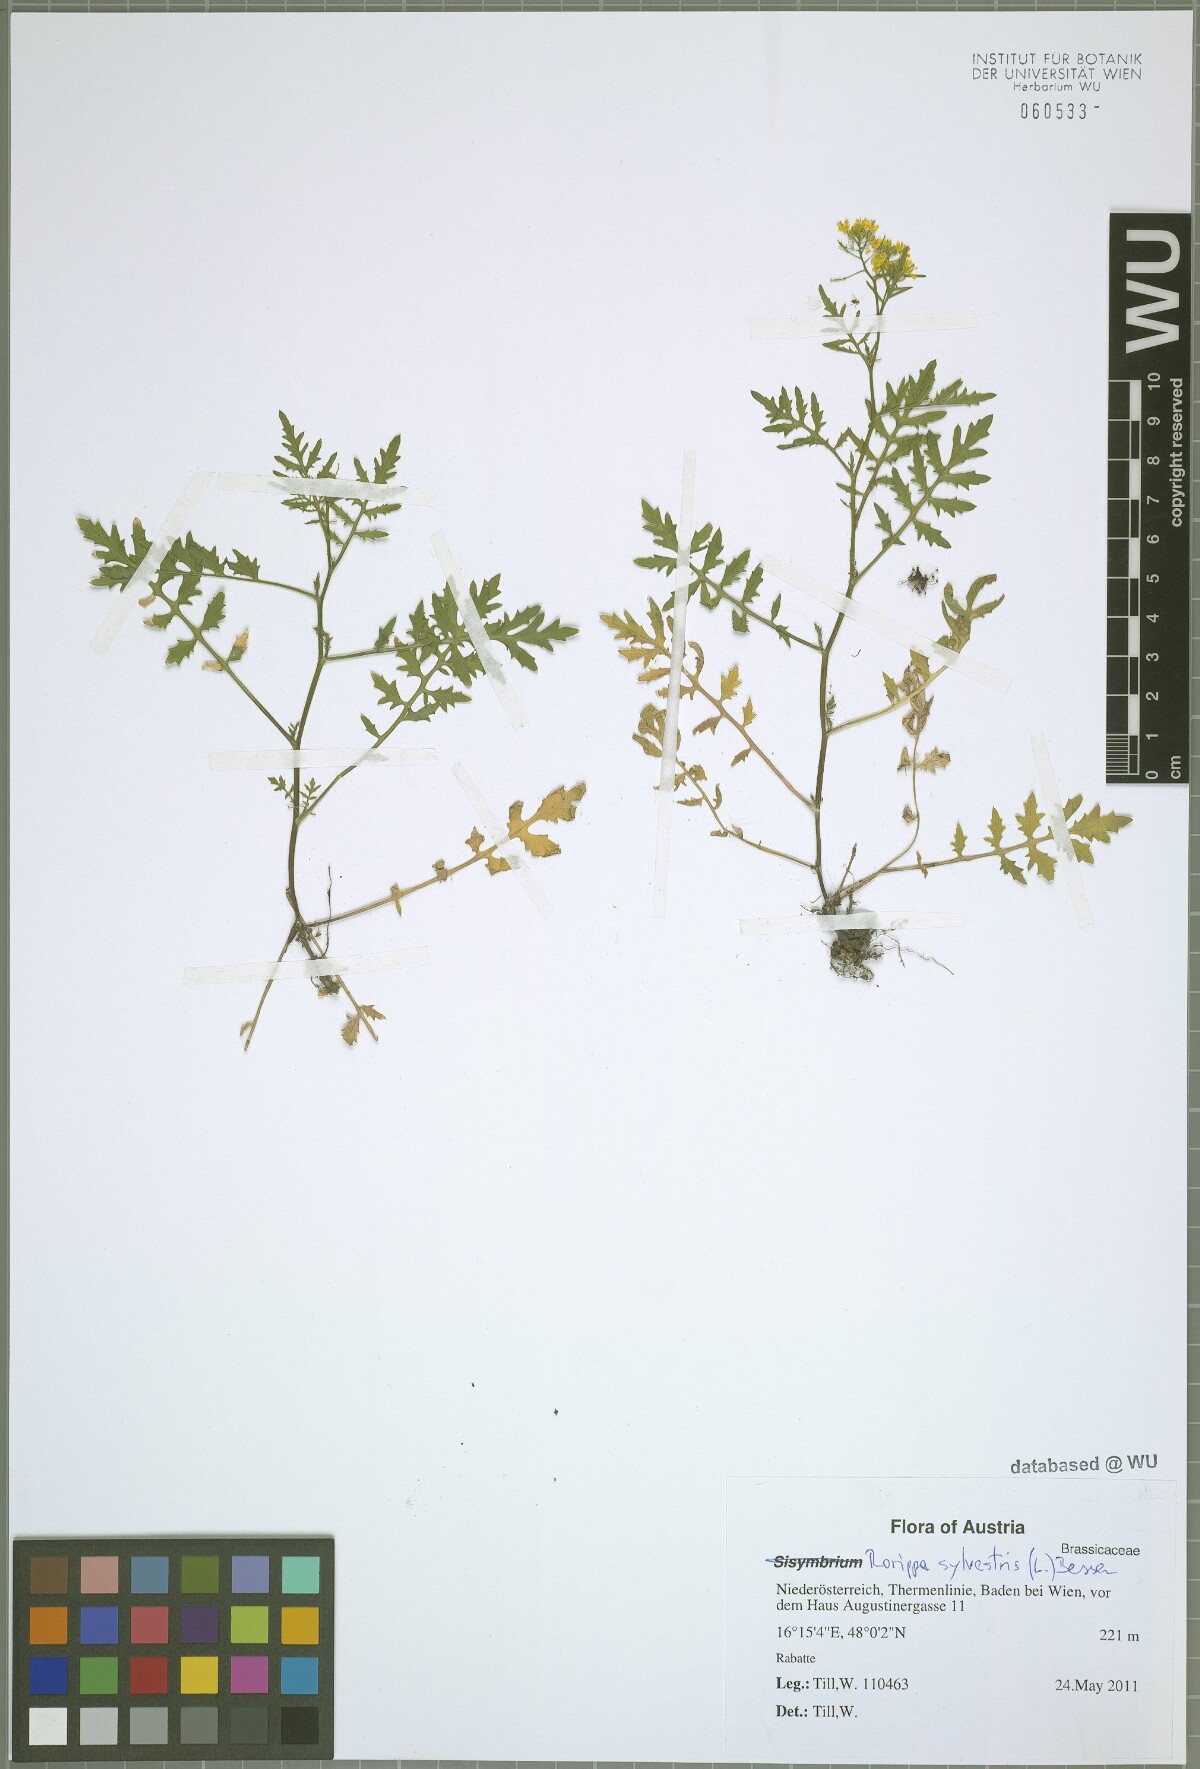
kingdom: Plantae
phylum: Tracheophyta
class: Magnoliopsida
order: Brassicales
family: Brassicaceae
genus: Rorippa
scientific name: Rorippa sylvestris
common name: Creeping yellowcress
